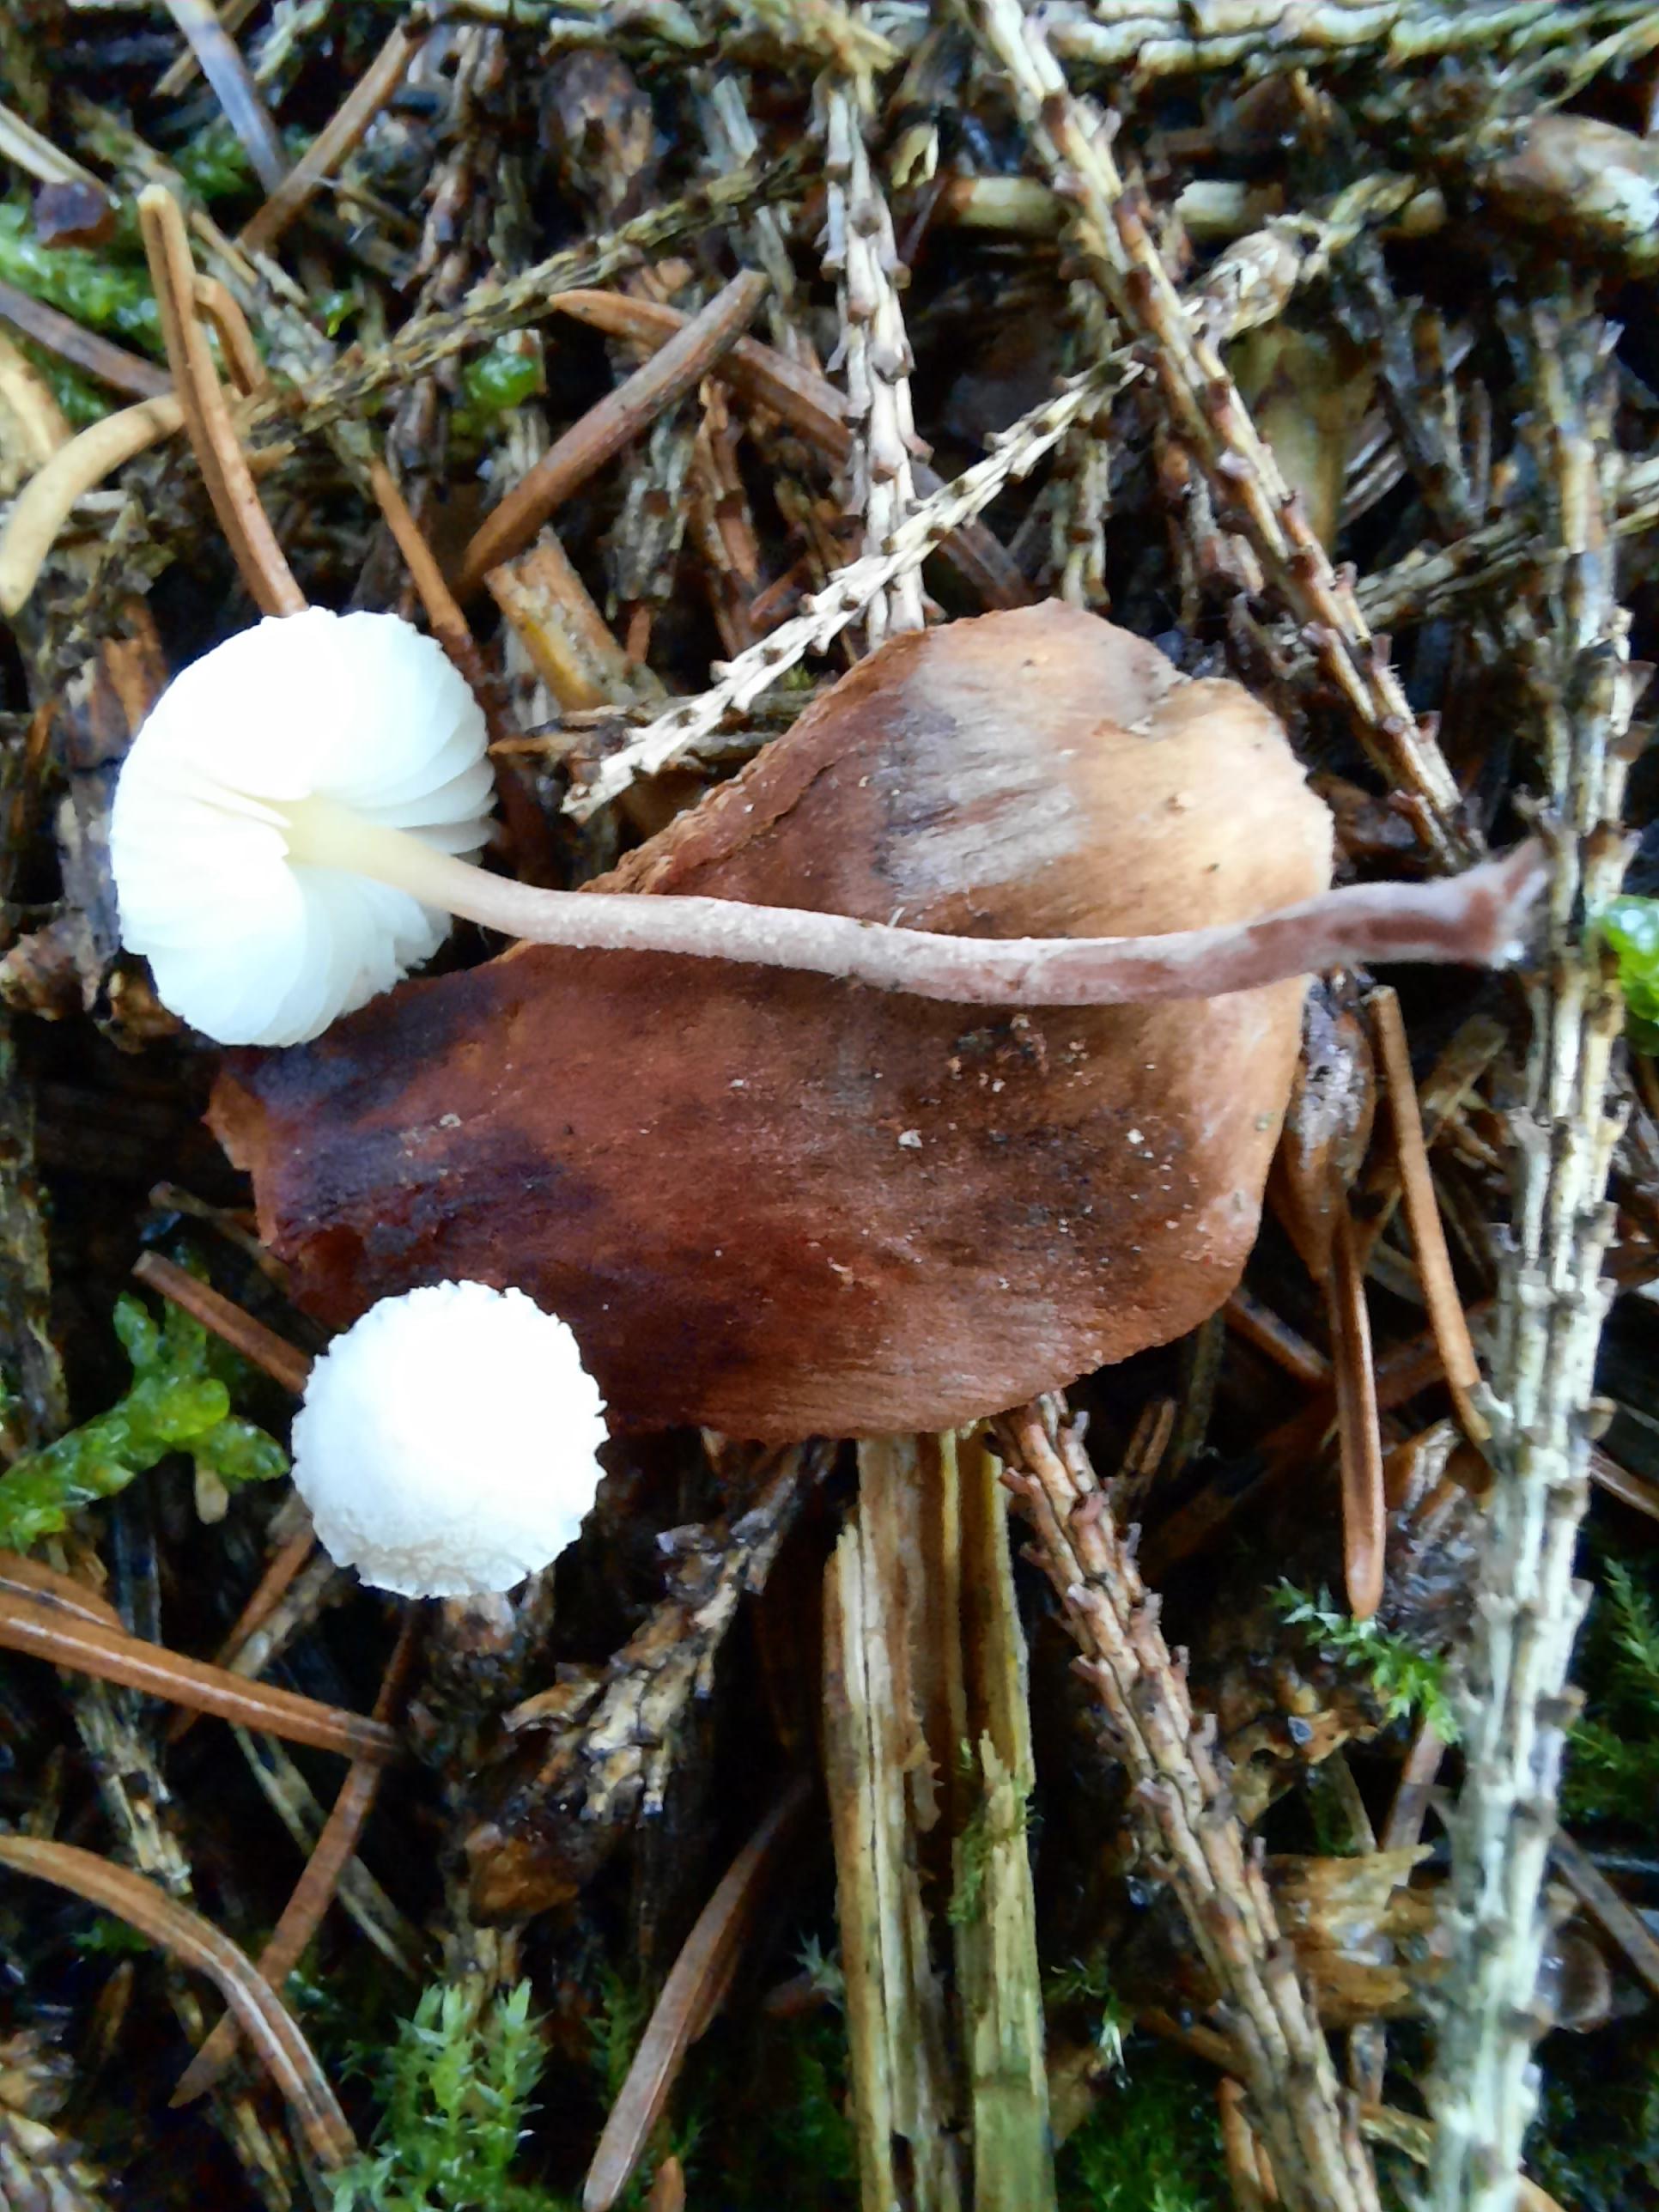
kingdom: Fungi
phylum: Basidiomycota
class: Agaricomycetes
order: Agaricales
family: Agaricaceae
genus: Cystolepiota
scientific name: Cystolepiota seminuda
